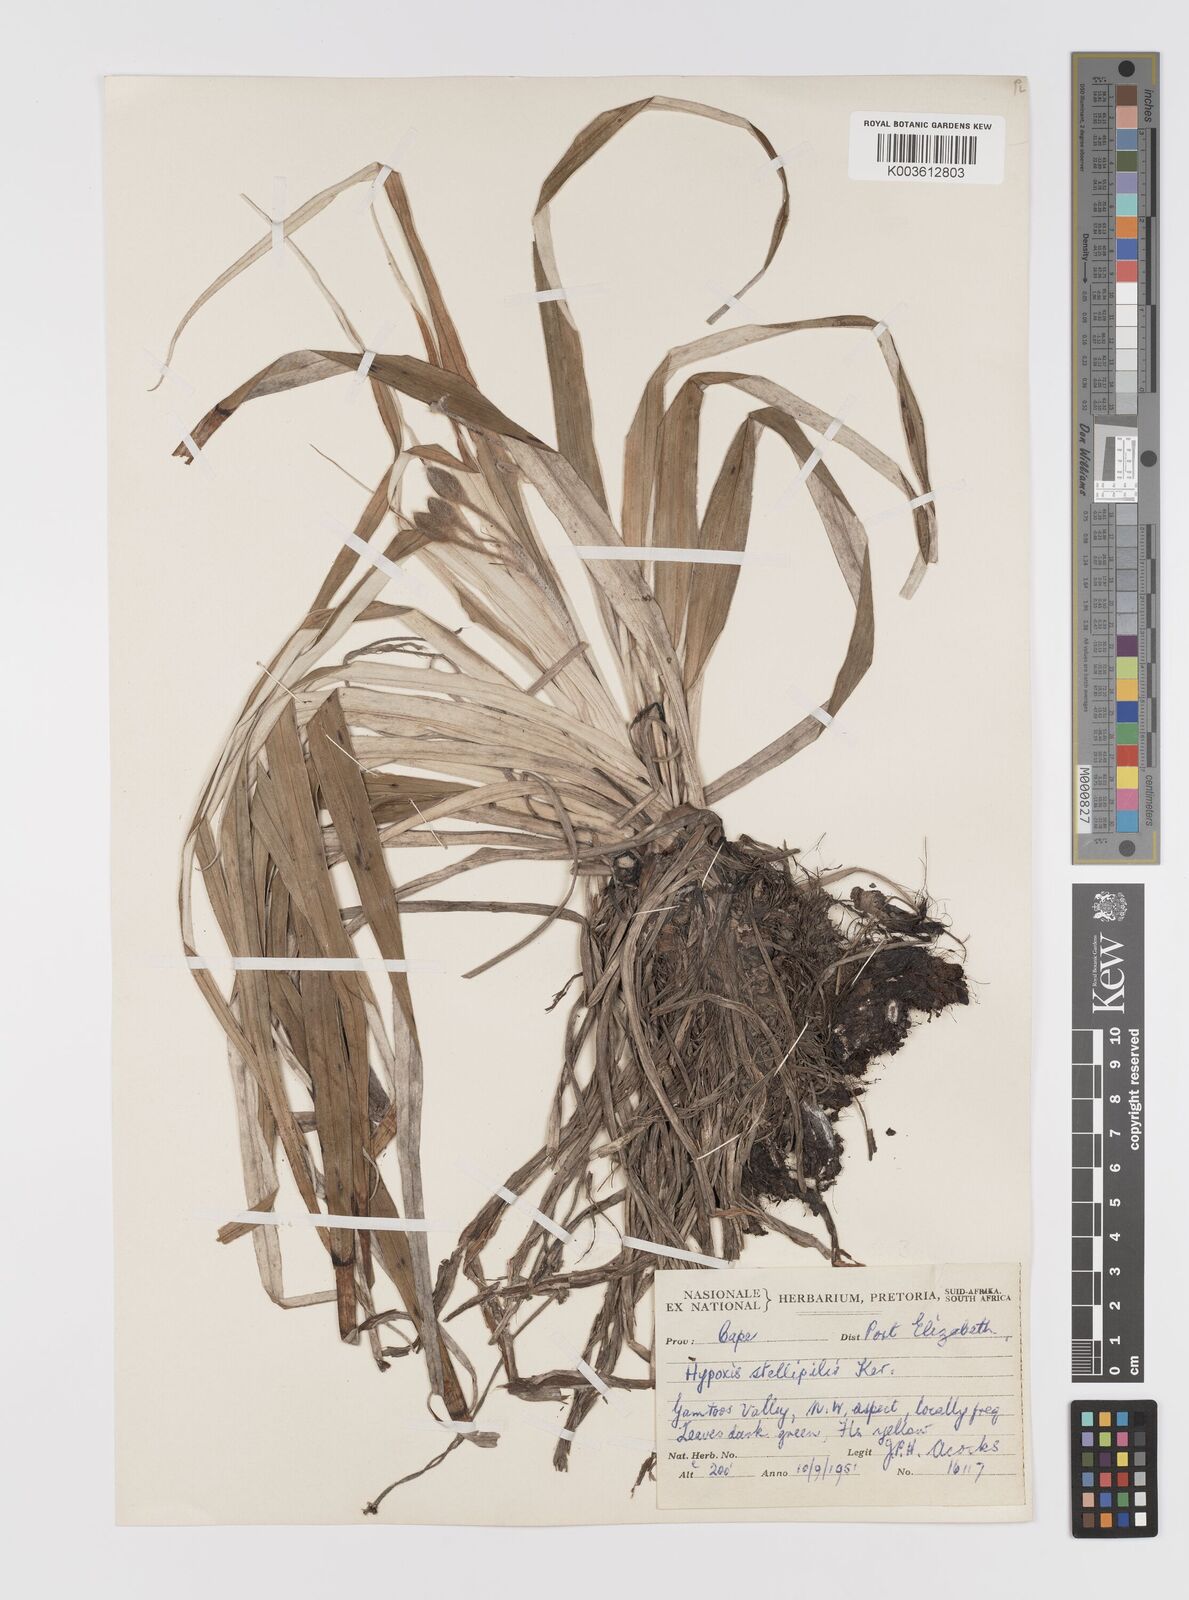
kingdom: Plantae
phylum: Tracheophyta
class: Liliopsida
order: Asparagales
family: Hypoxidaceae
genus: Hypoxis
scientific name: Hypoxis stellipilis
